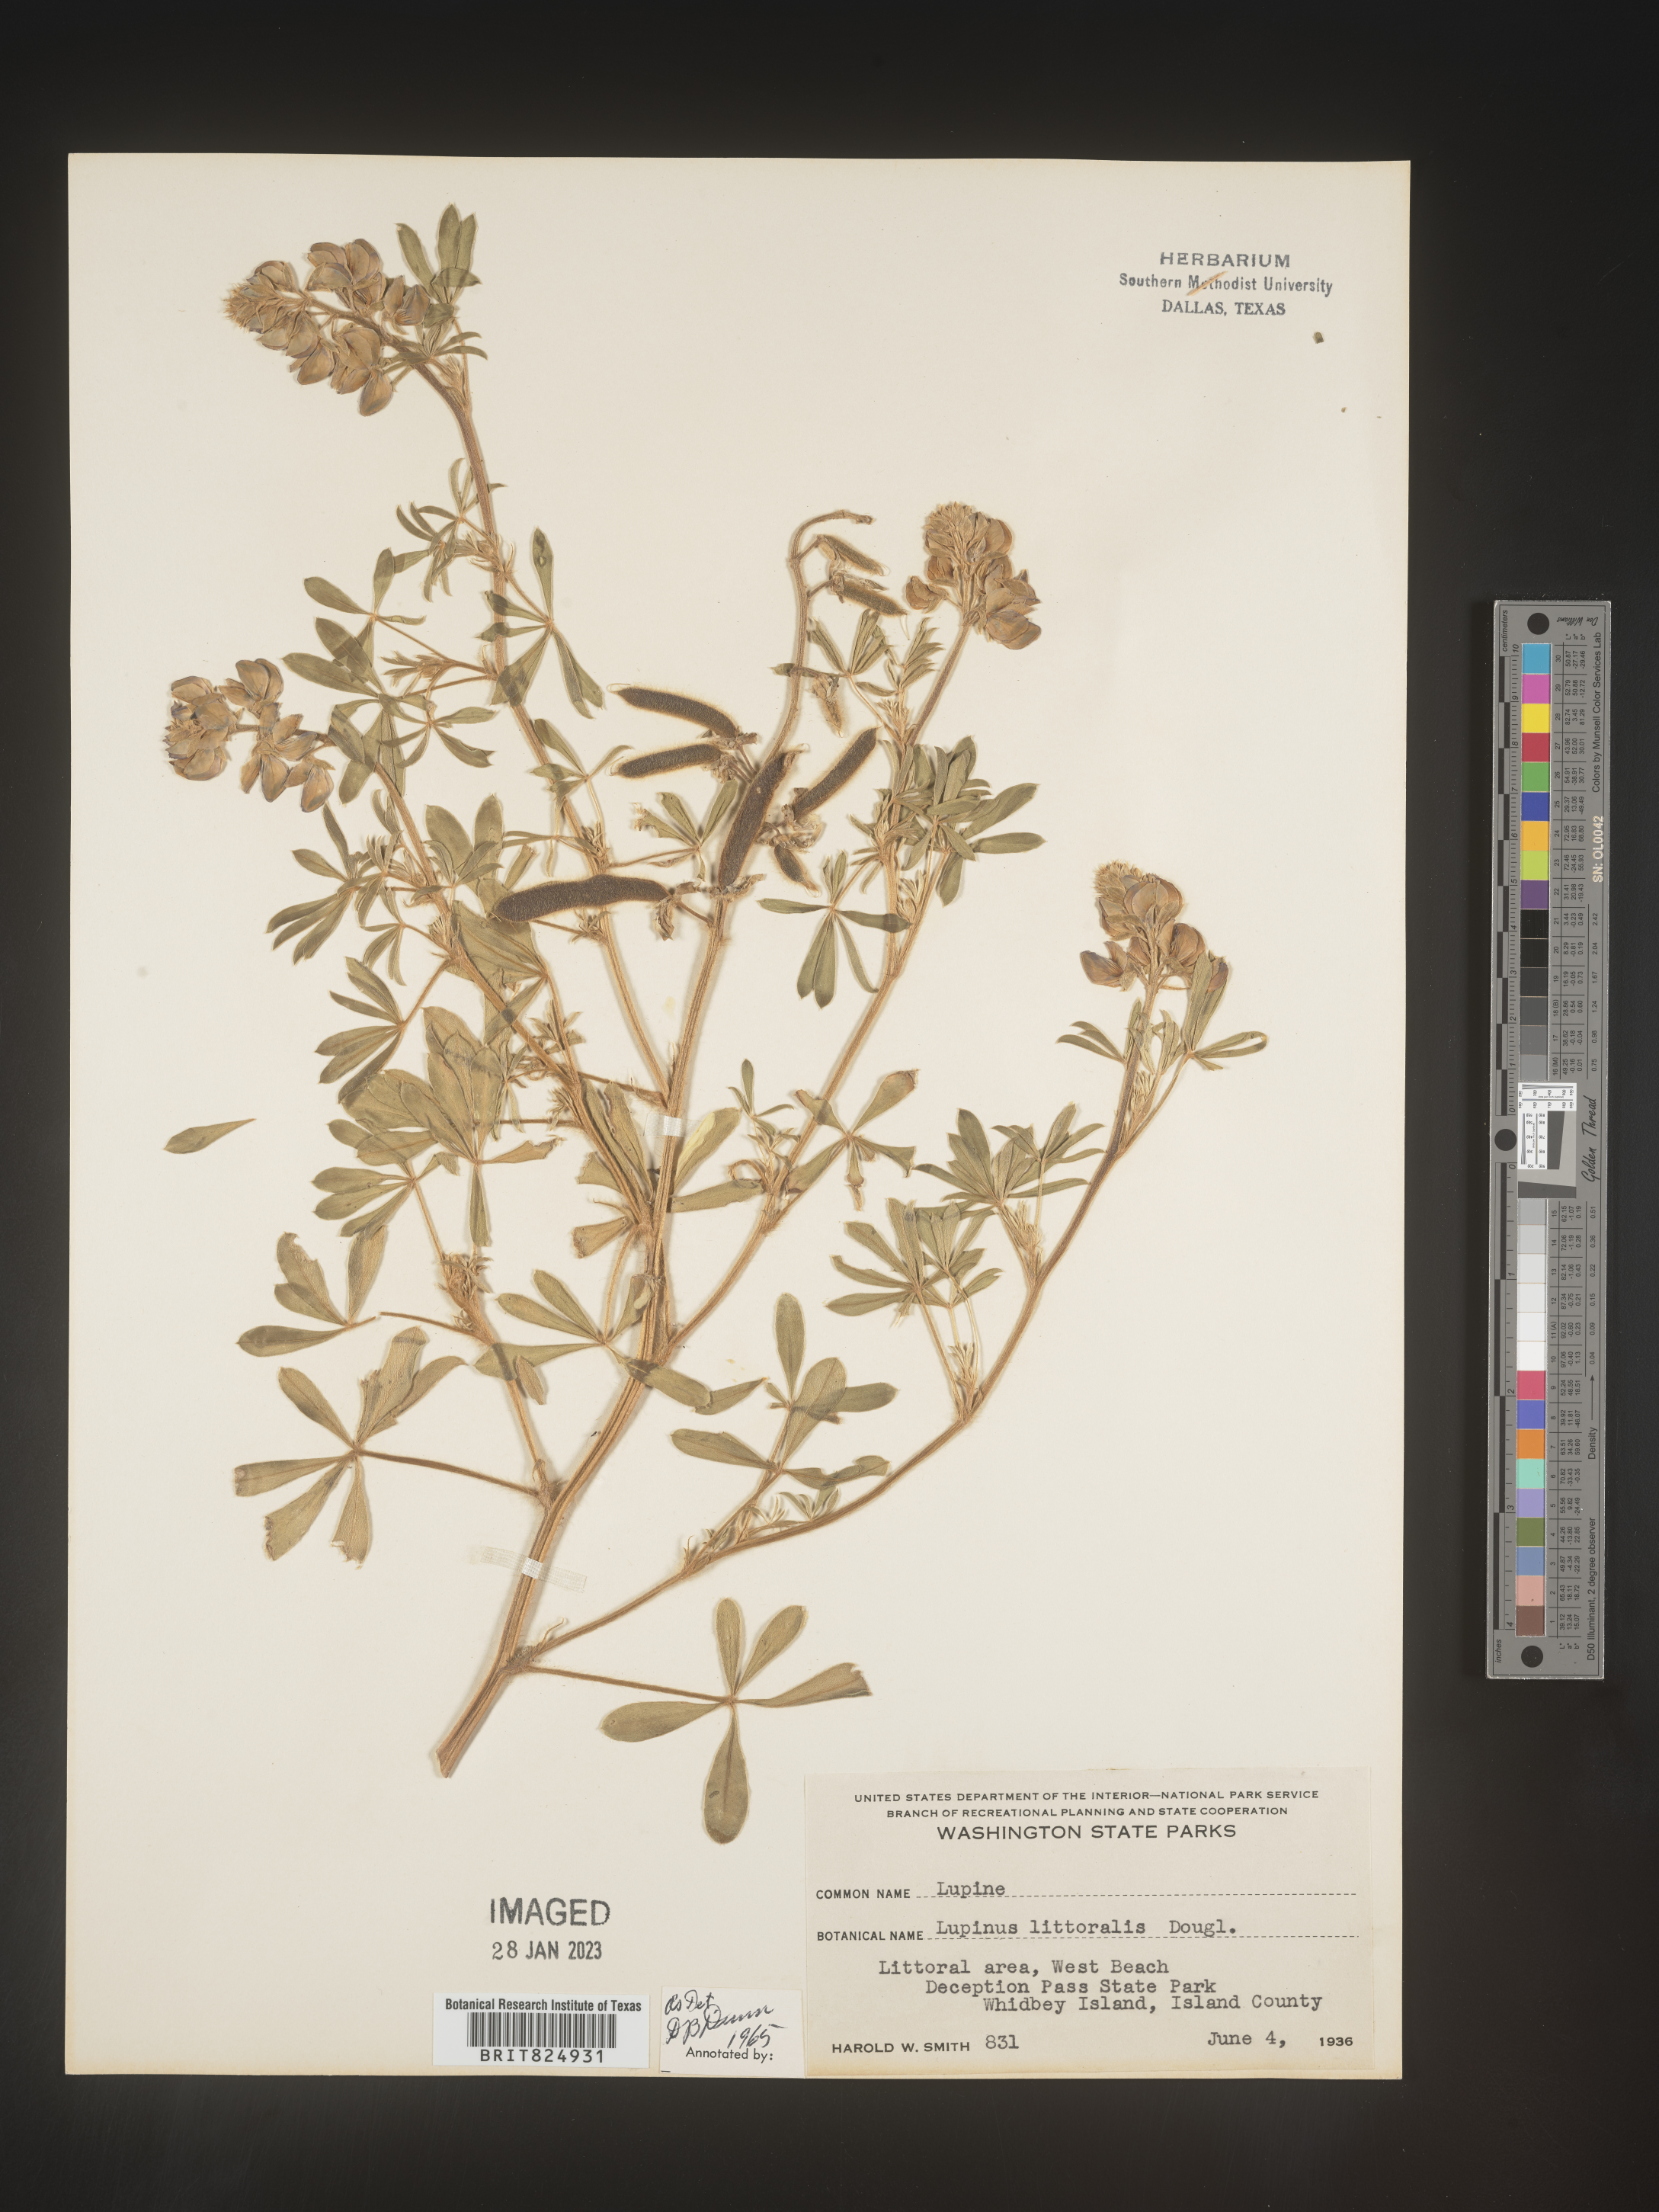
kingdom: Plantae
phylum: Tracheophyta
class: Magnoliopsida
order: Fabales
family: Fabaceae
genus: Lupinus
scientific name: Lupinus
